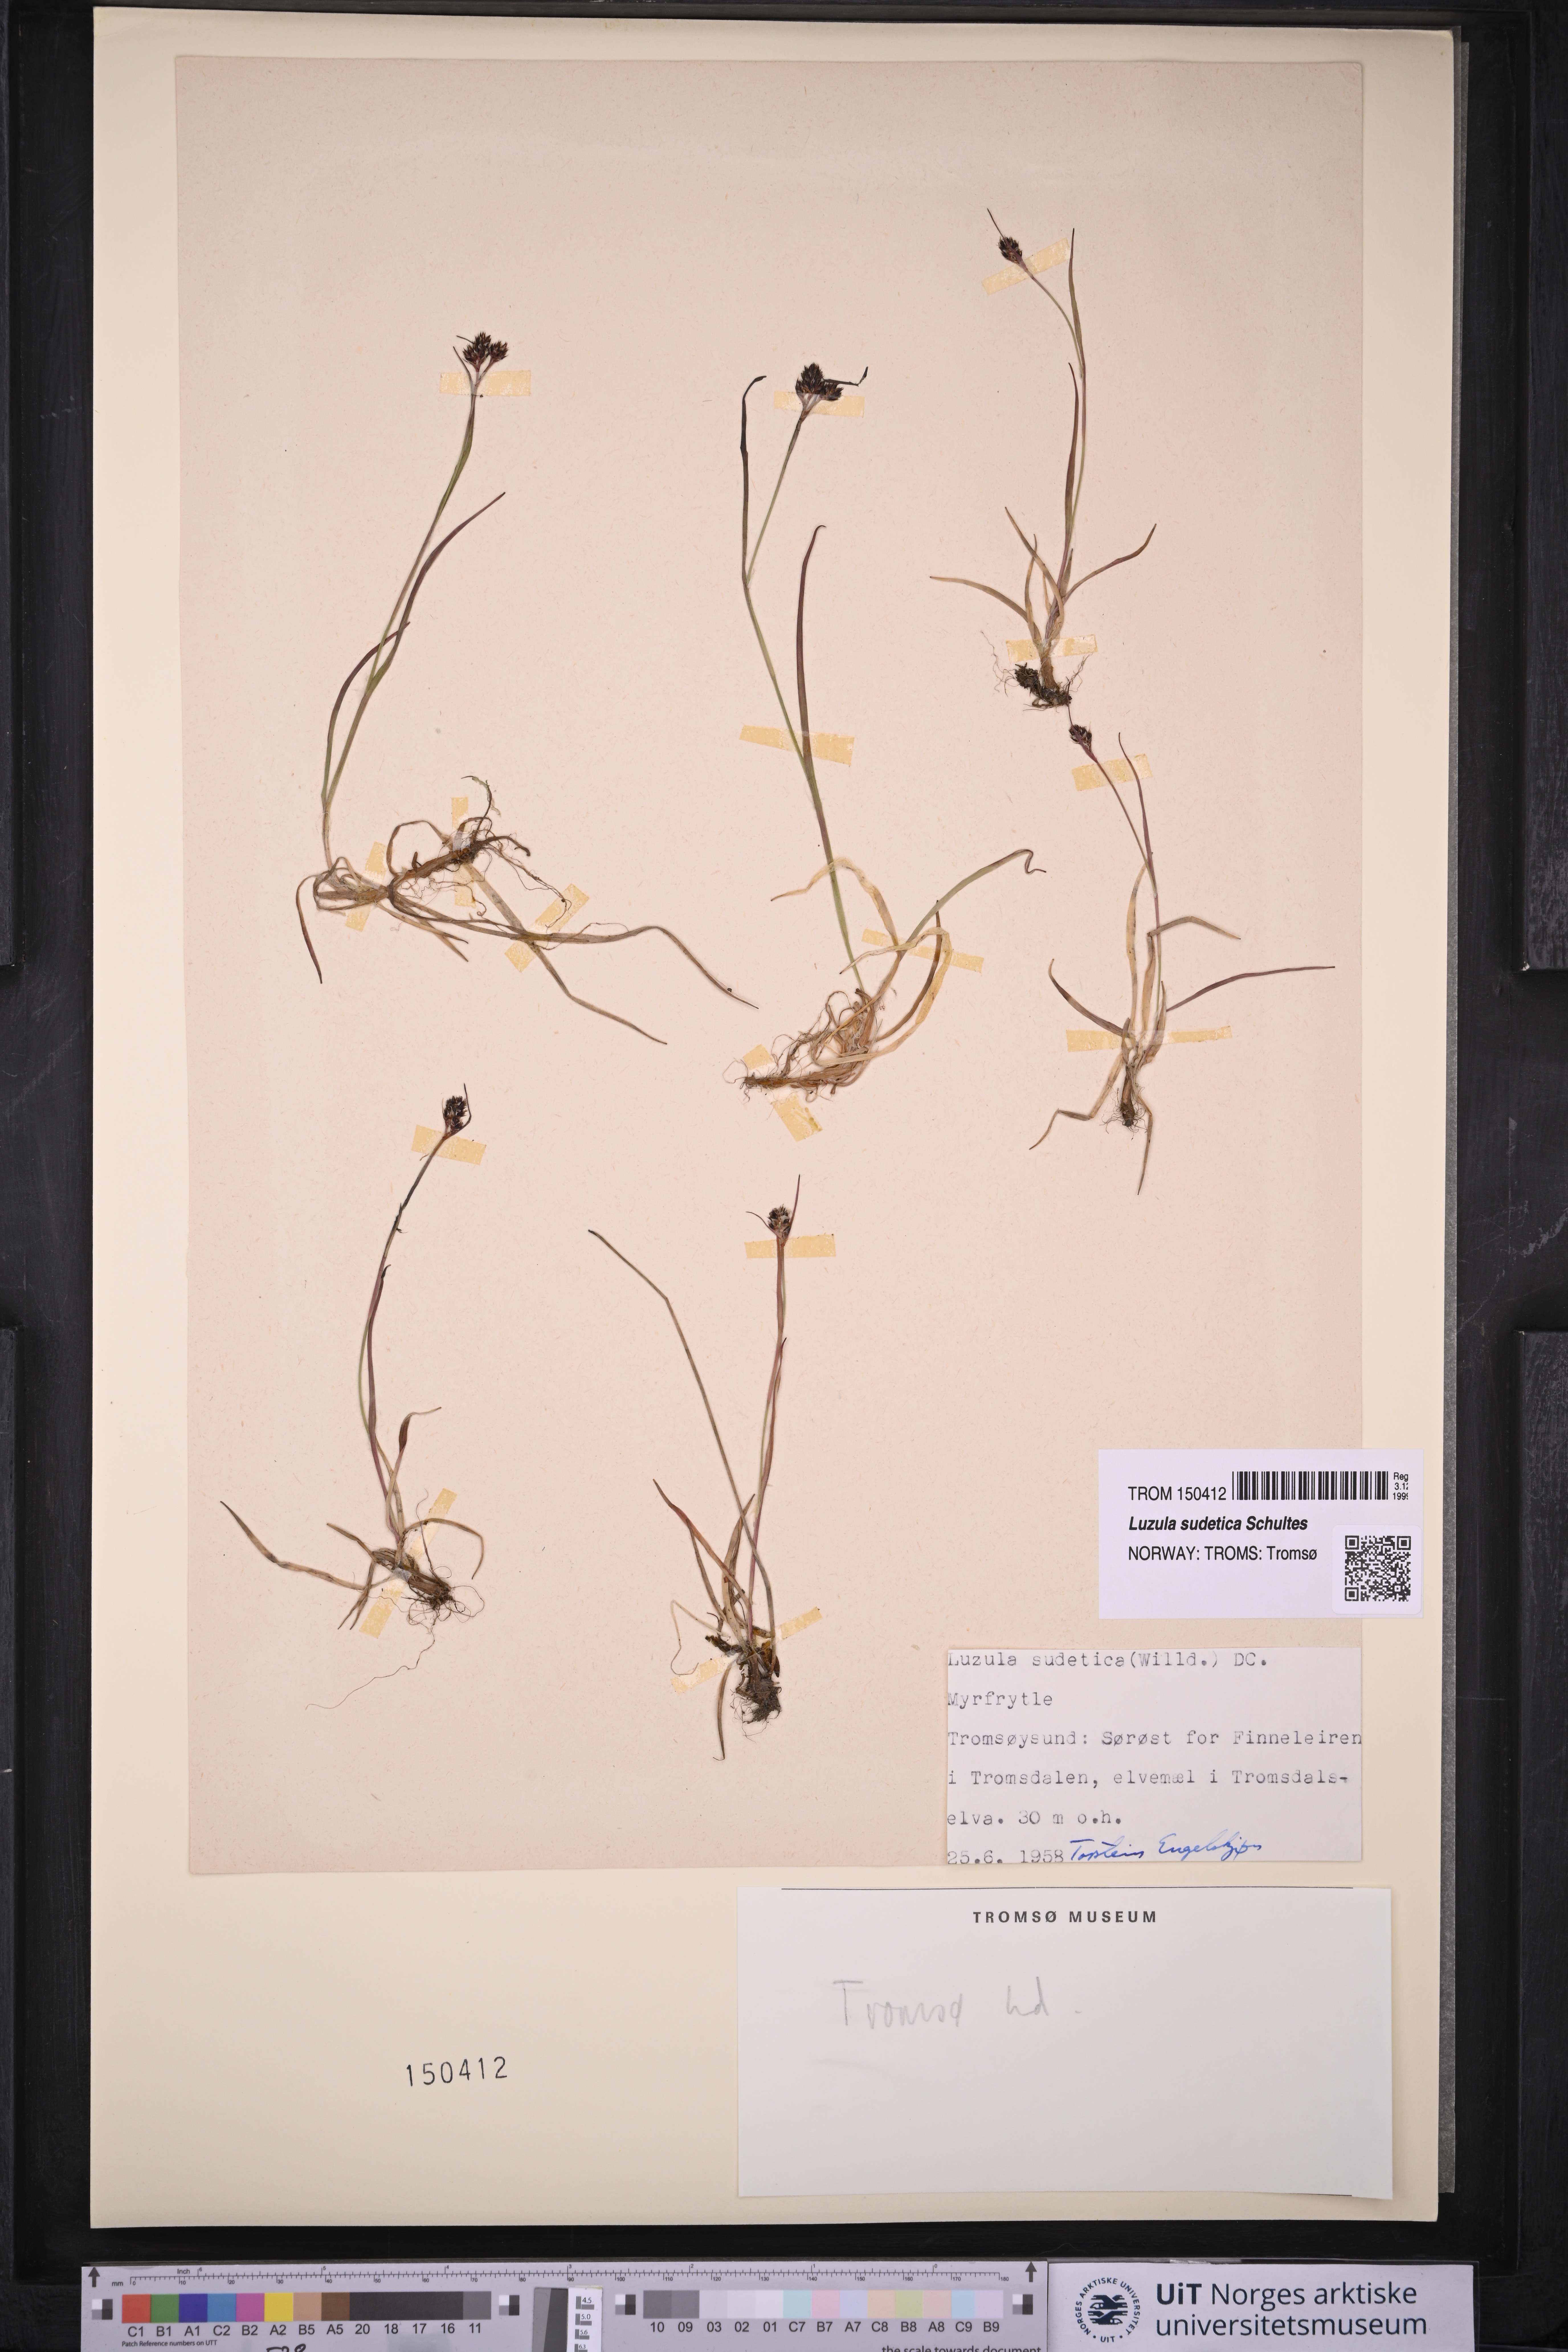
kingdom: Plantae
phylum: Tracheophyta
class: Liliopsida
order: Poales
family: Juncaceae
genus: Luzula
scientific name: Luzula sudetica
